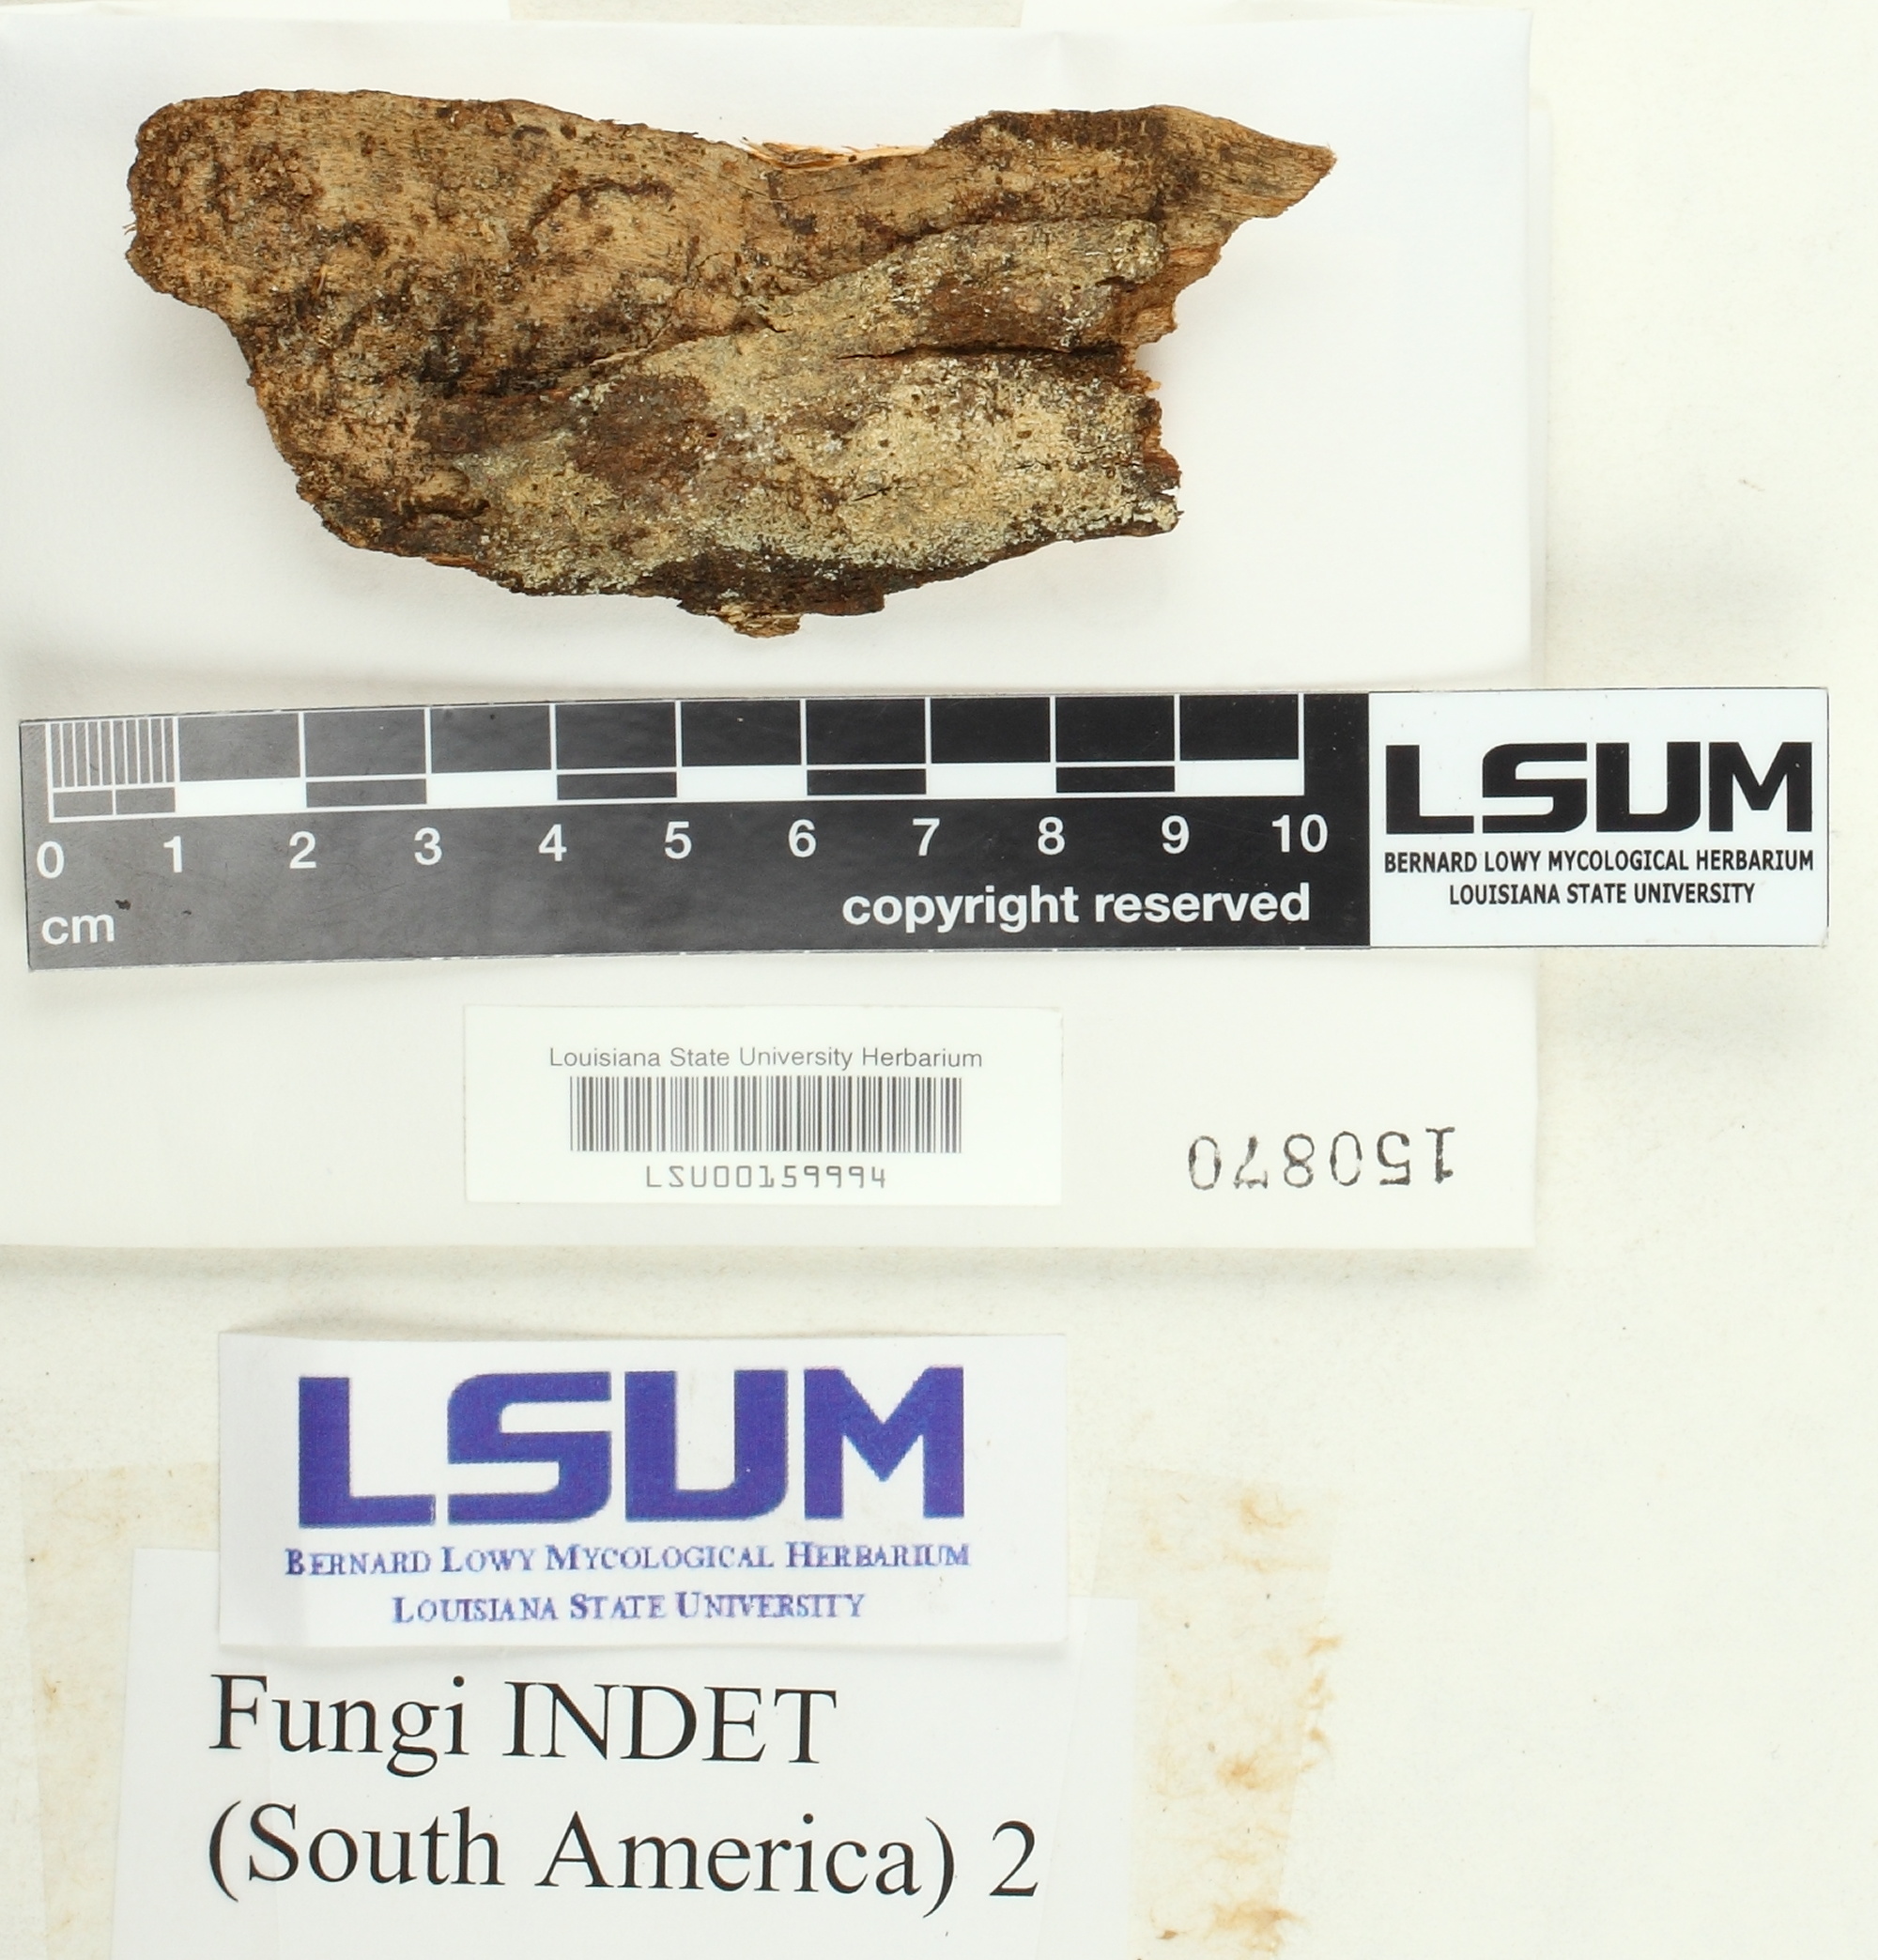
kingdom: Fungi
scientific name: Fungi
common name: Fungi
